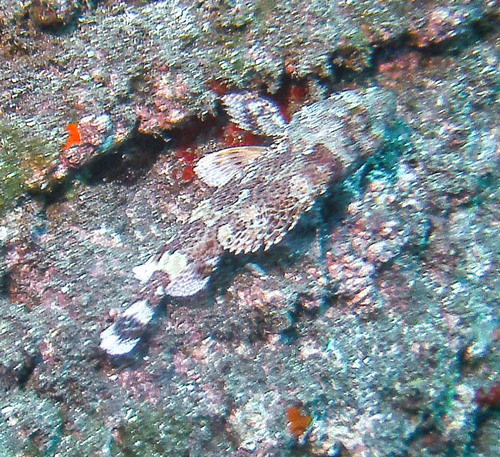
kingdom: Animalia
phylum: Chordata
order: Scorpaeniformes
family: Scorpaenidae
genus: Scorpaena
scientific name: Scorpaena maderensis
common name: Madeira rockfish
